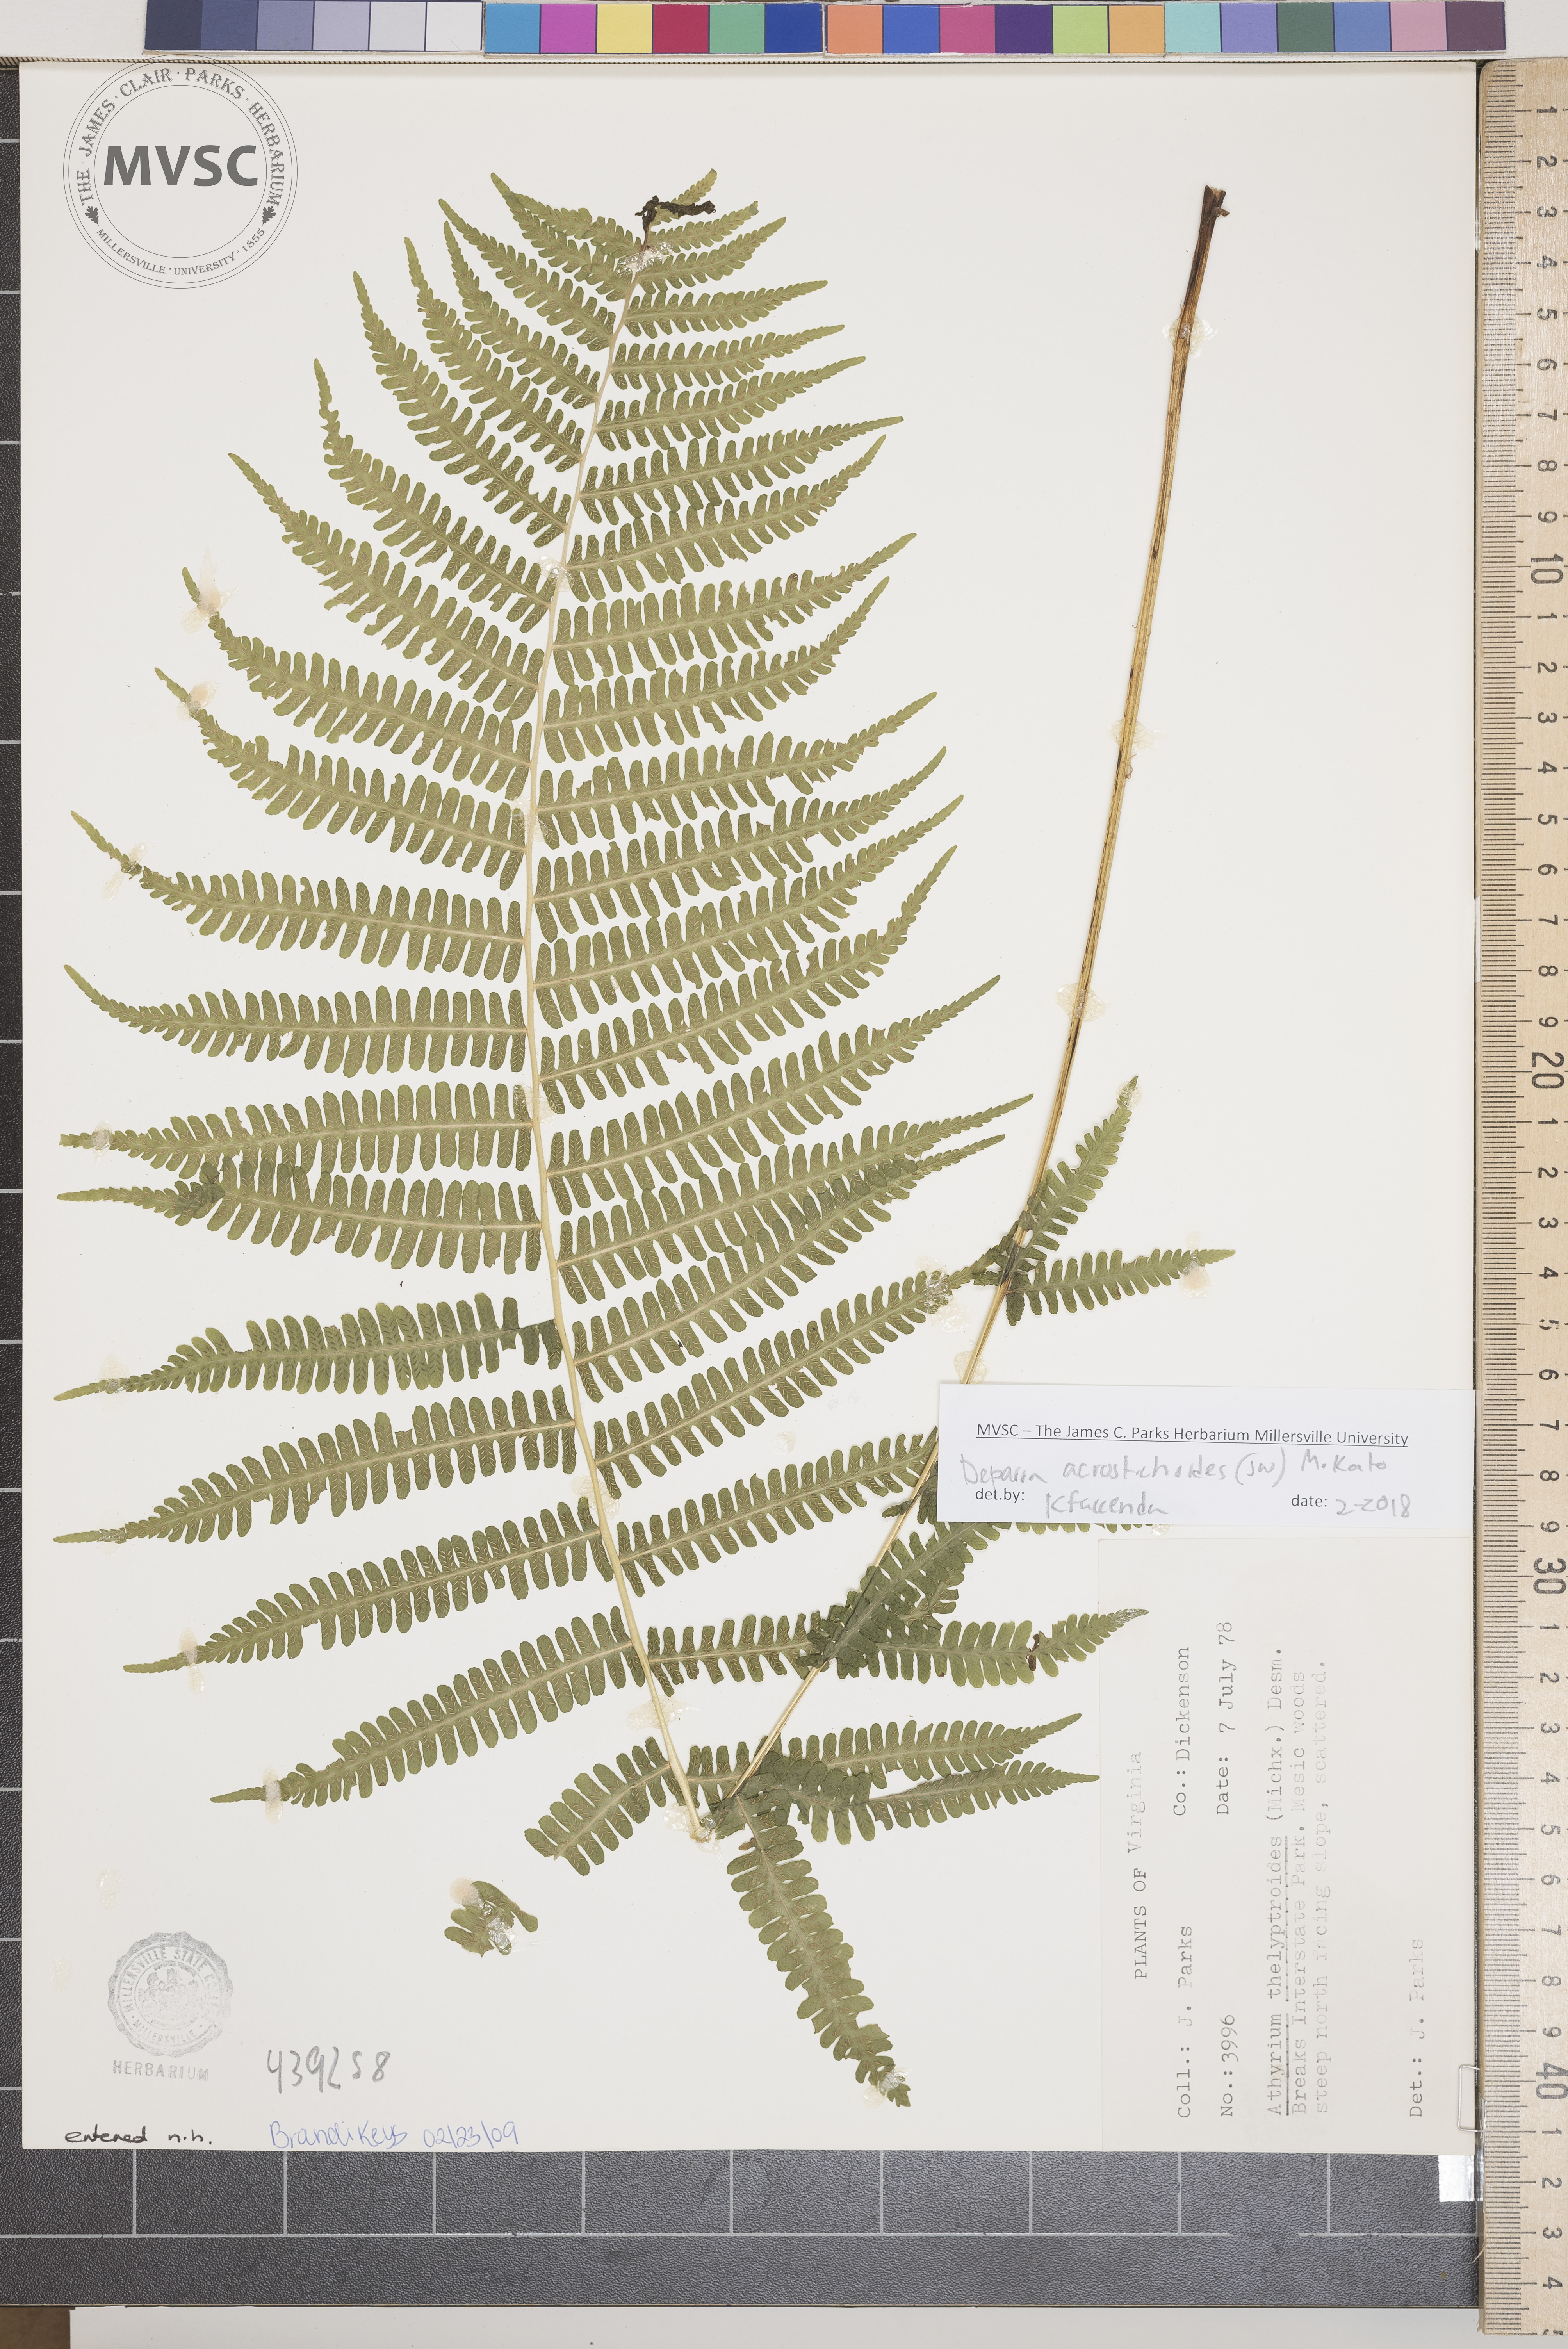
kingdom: Plantae
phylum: Tracheophyta
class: Polypodiopsida
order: Polypodiales
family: Athyriaceae
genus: Deparia
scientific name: Deparia acrostichoides
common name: Silvery spleenwort
